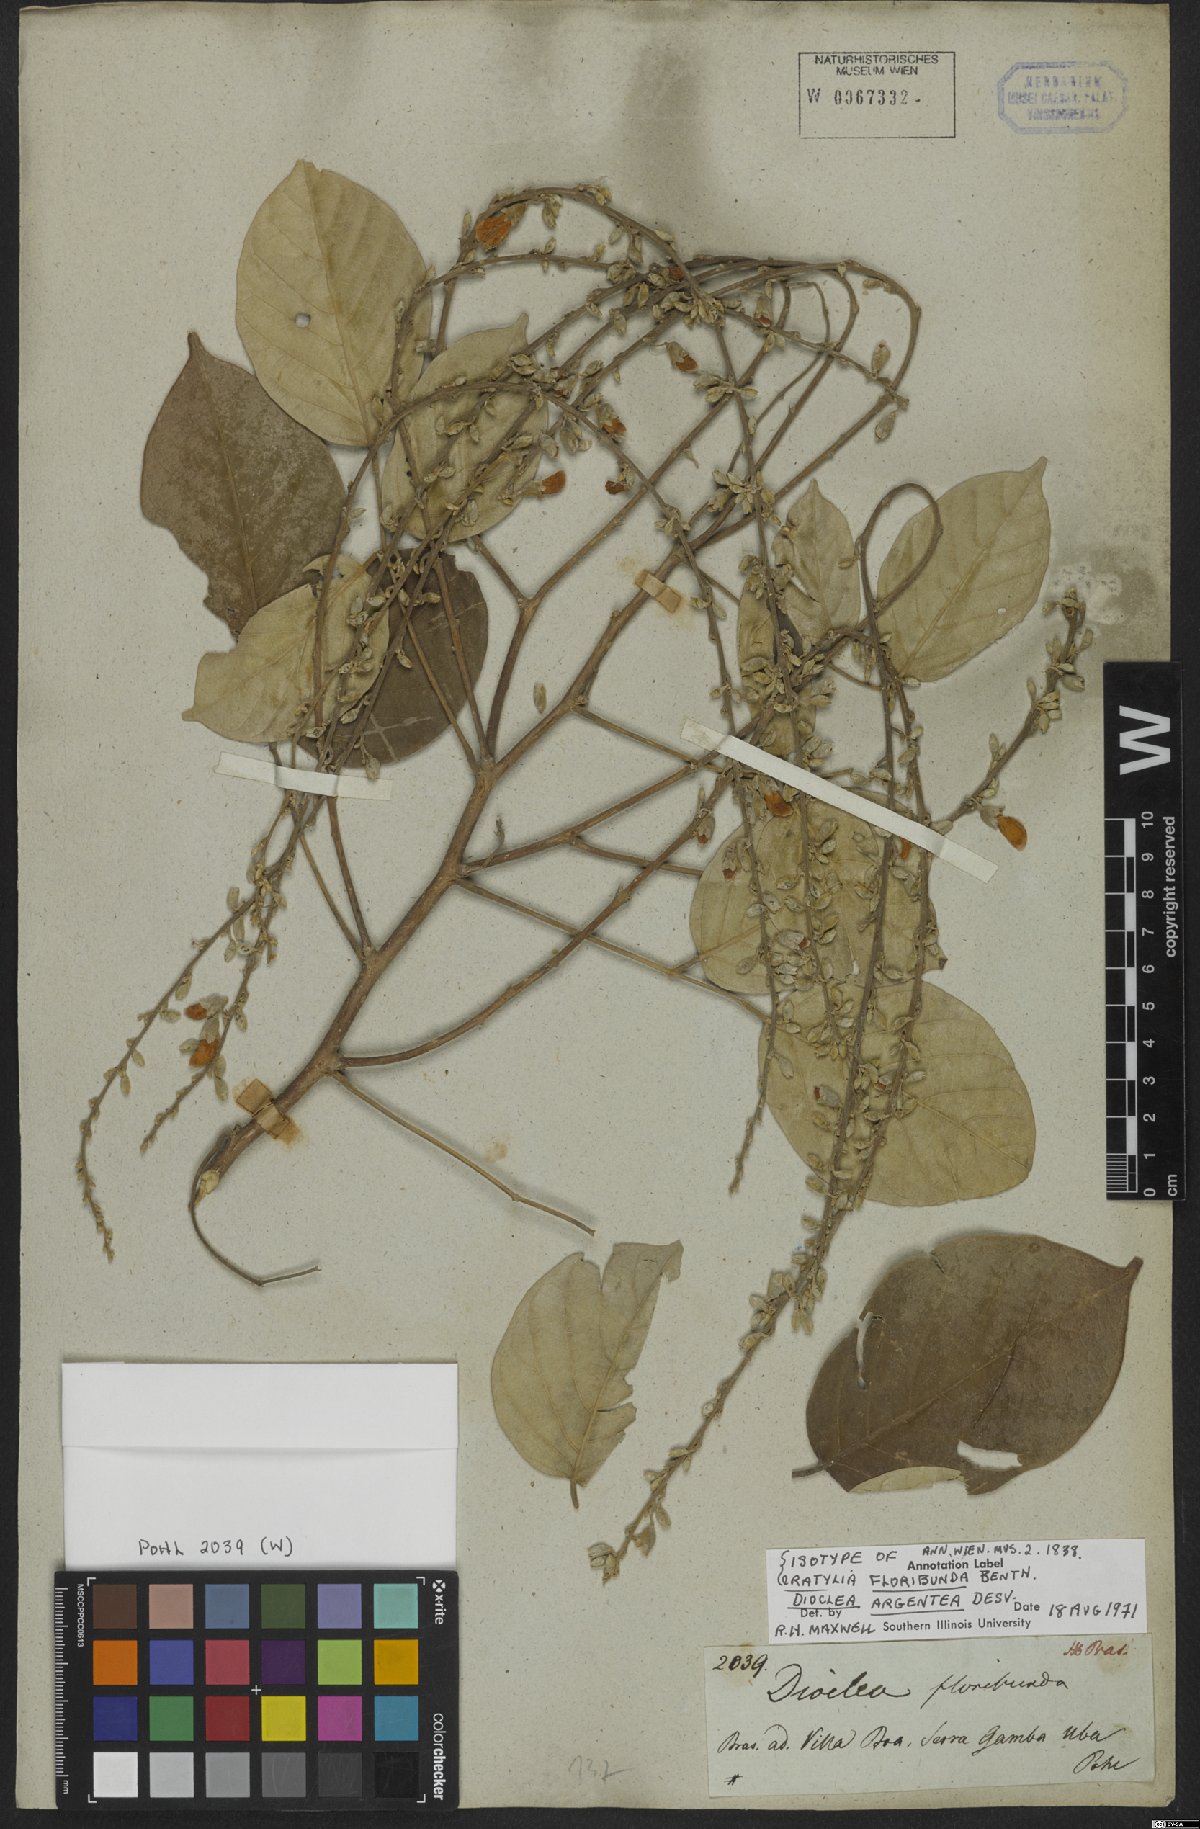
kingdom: Plantae
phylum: Tracheophyta
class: Magnoliopsida
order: Fabales
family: Fabaceae
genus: Cratylia
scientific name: Cratylia argentea
